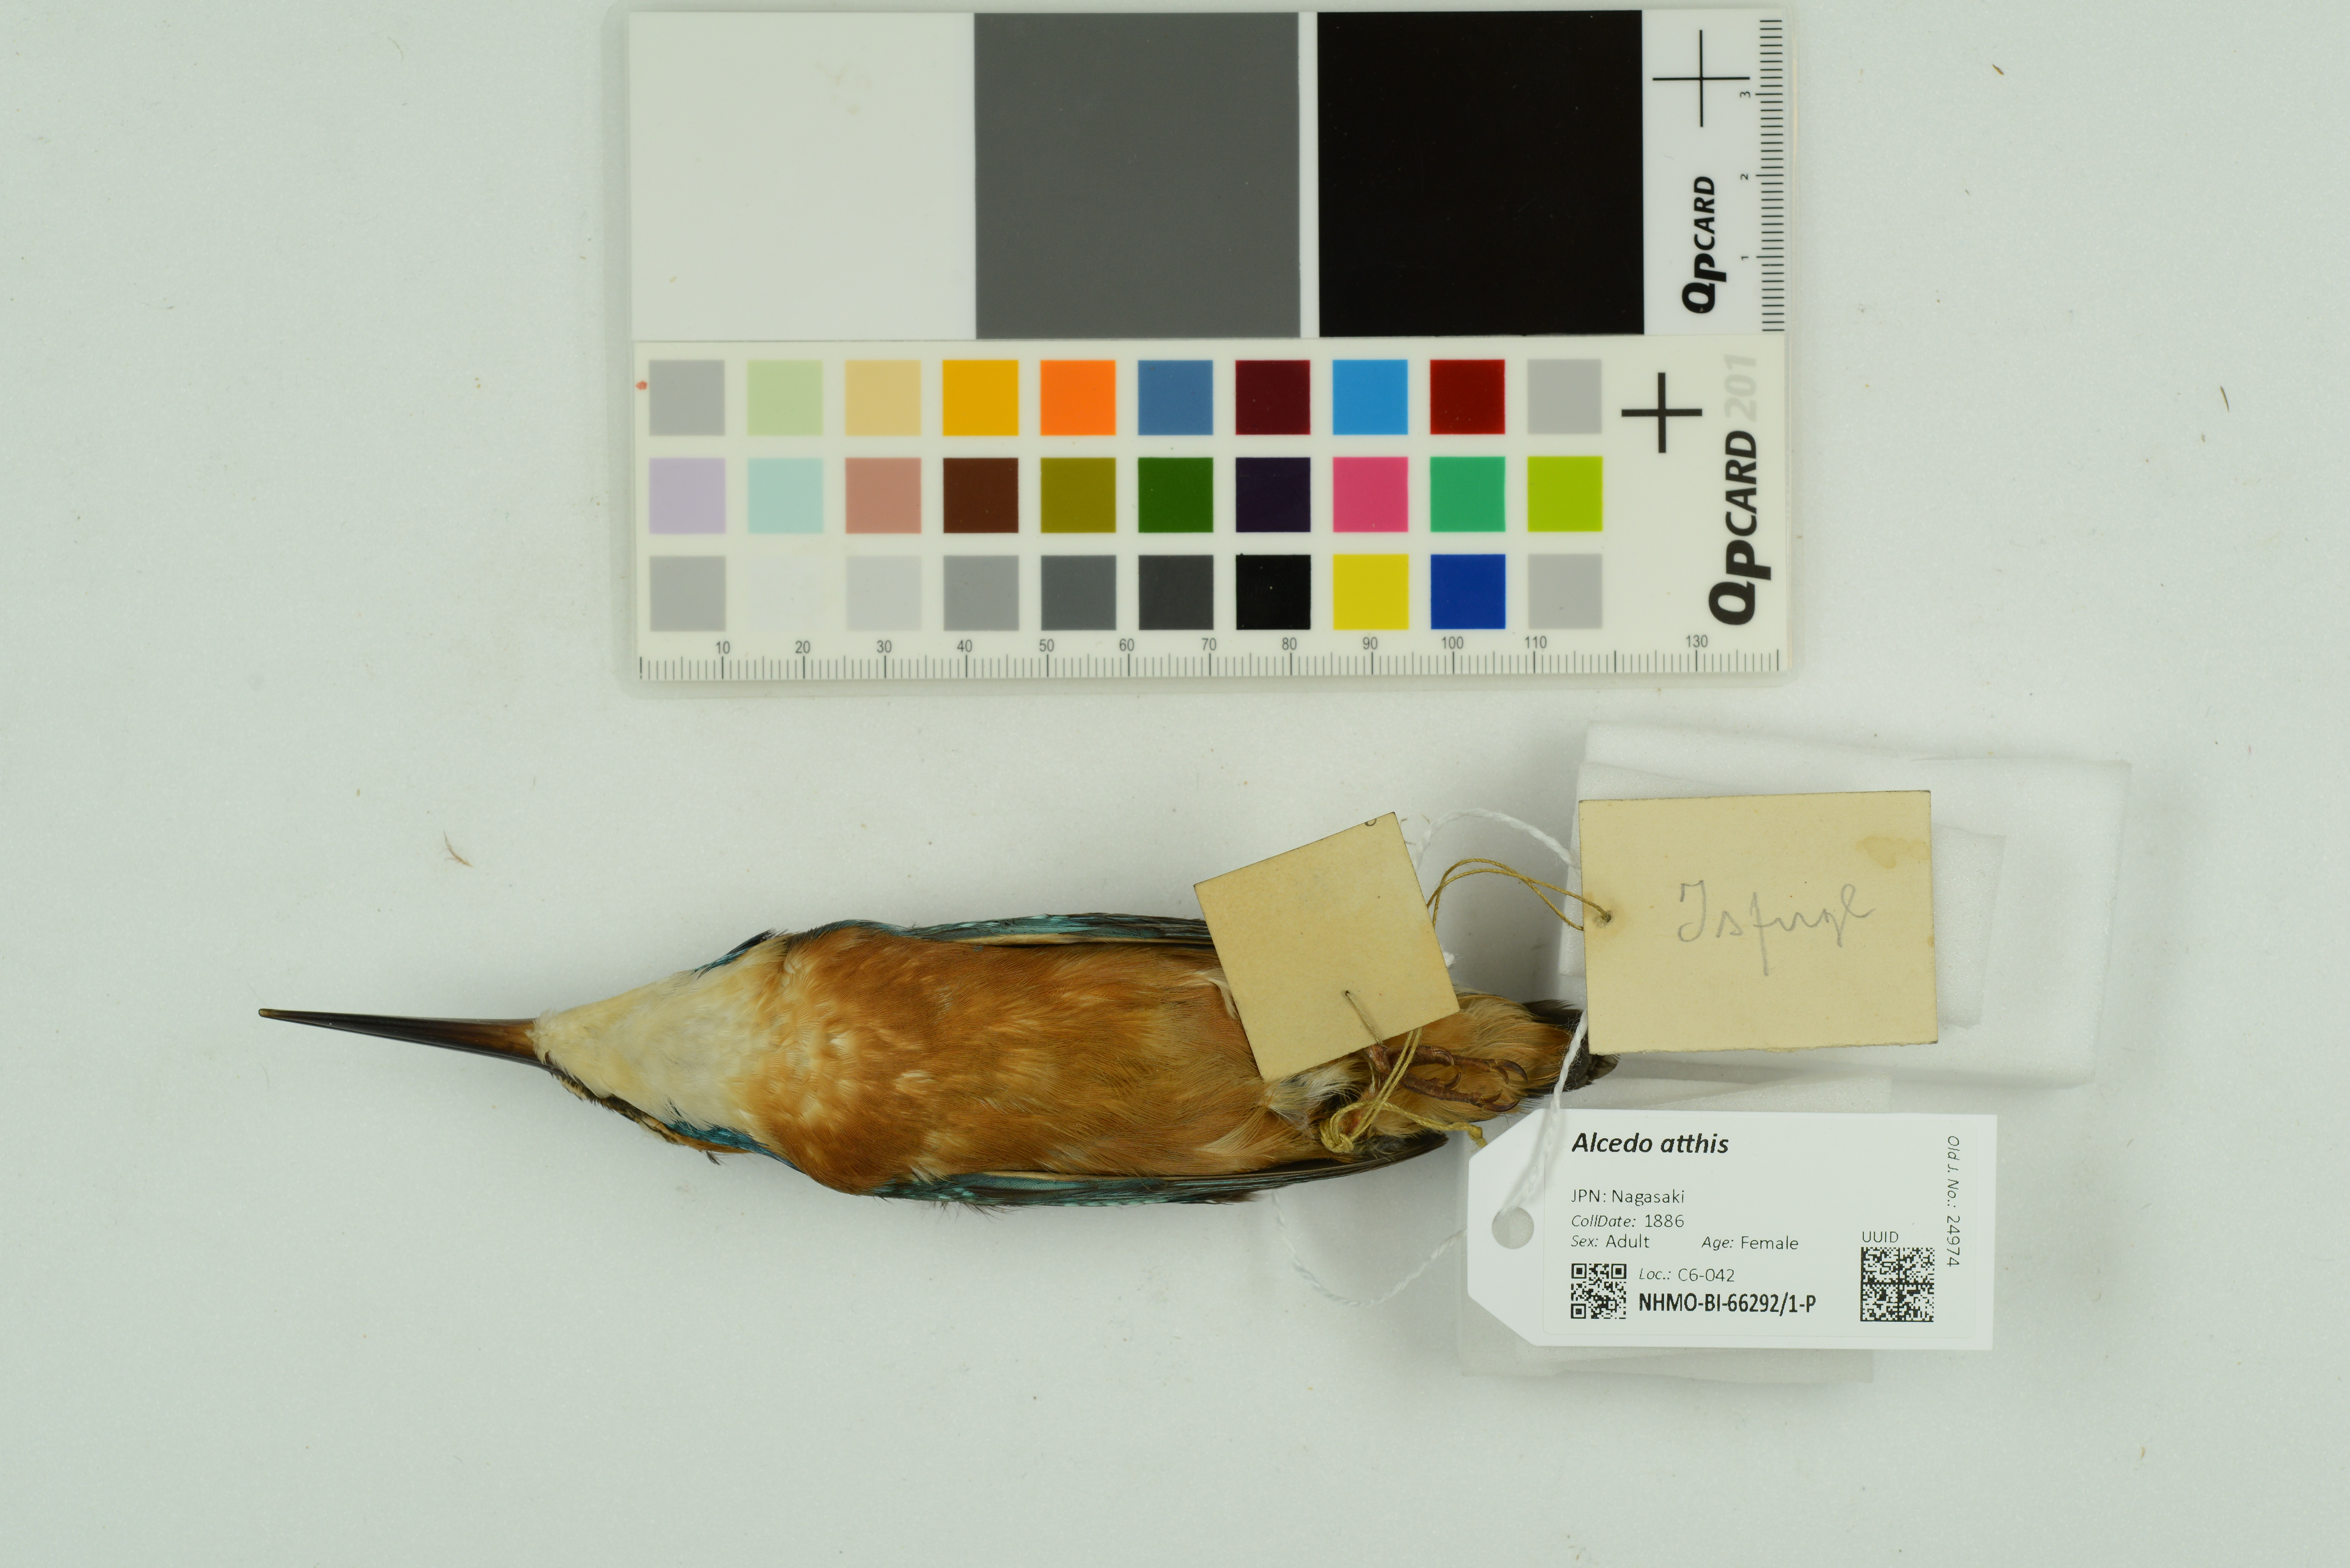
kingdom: Animalia
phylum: Chordata
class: Aves
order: Coraciiformes
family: Alcedinidae
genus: Alcedo
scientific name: Alcedo atthis
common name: Common kingfisher
